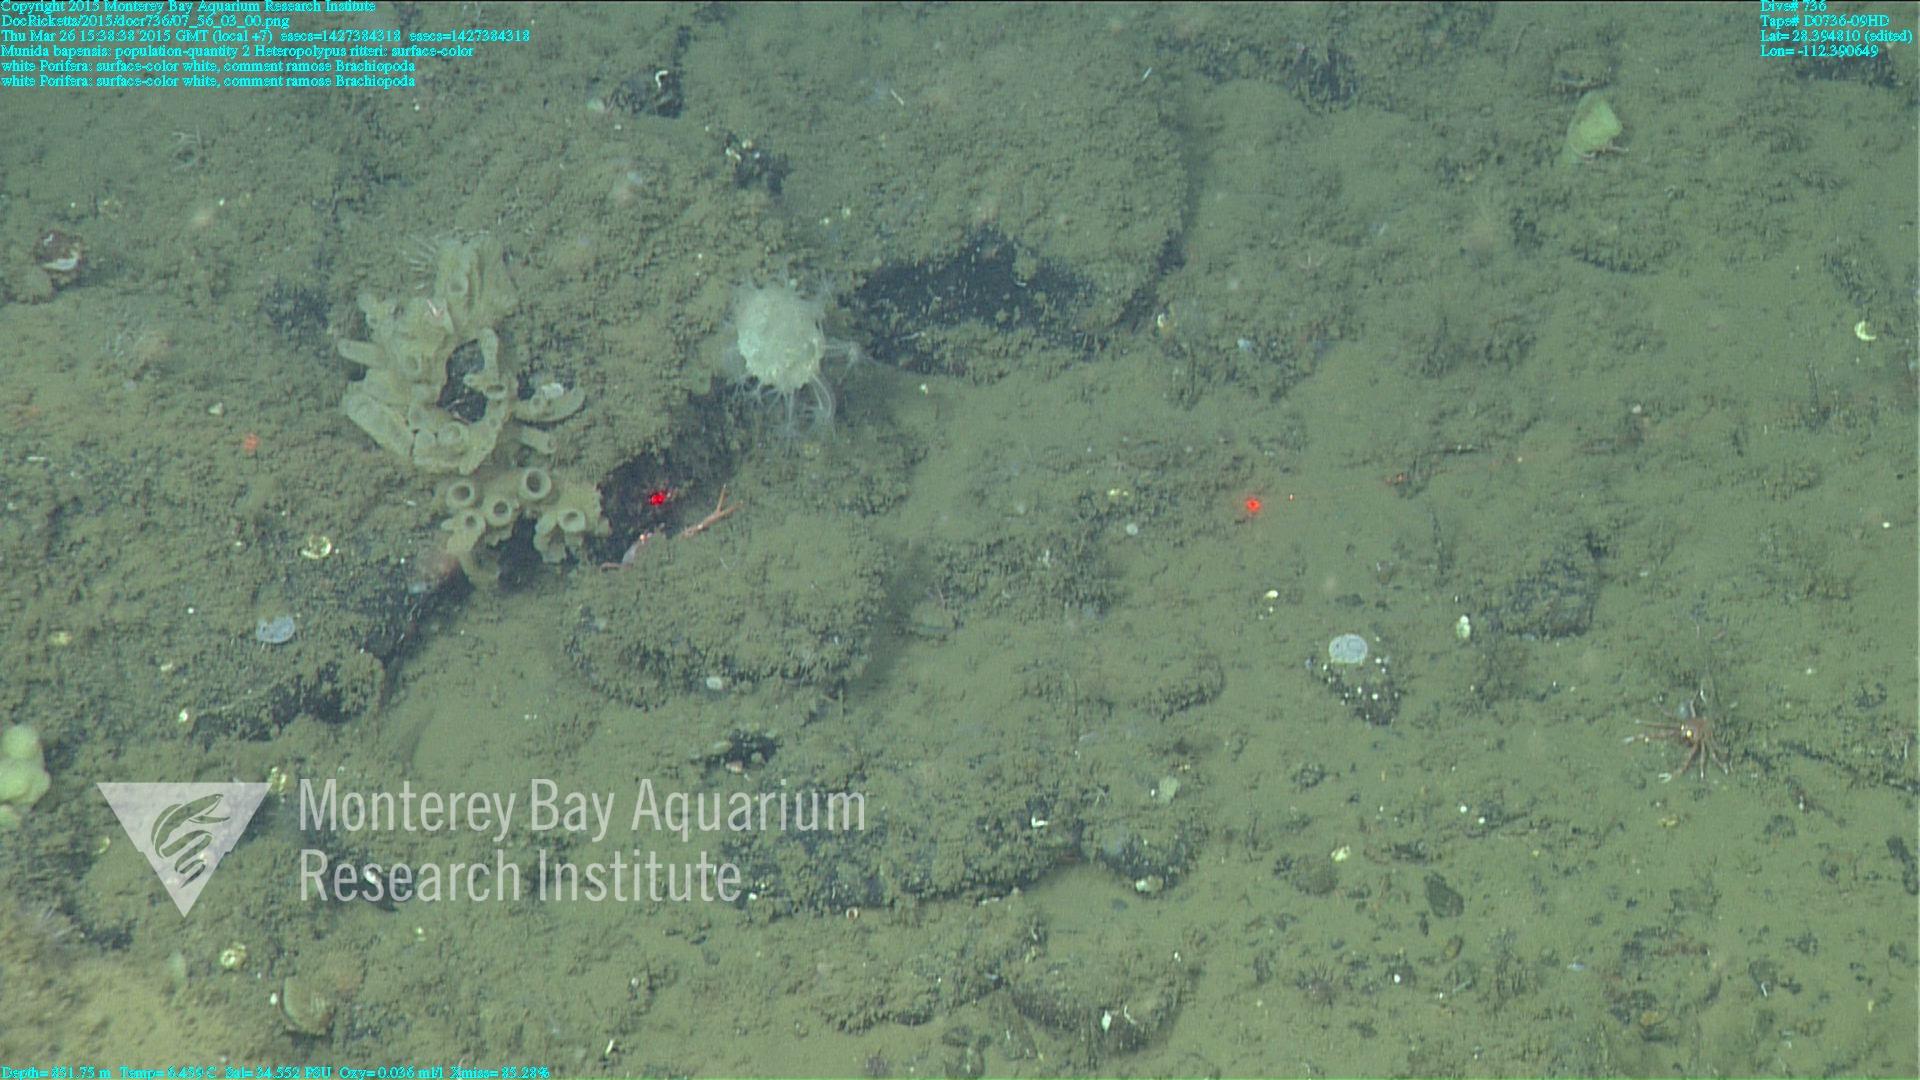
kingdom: Animalia
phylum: Cnidaria
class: Anthozoa
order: Scleralcyonacea
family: Coralliidae
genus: Heteropolypus
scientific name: Heteropolypus ritteri
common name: Ritter's soft coral
